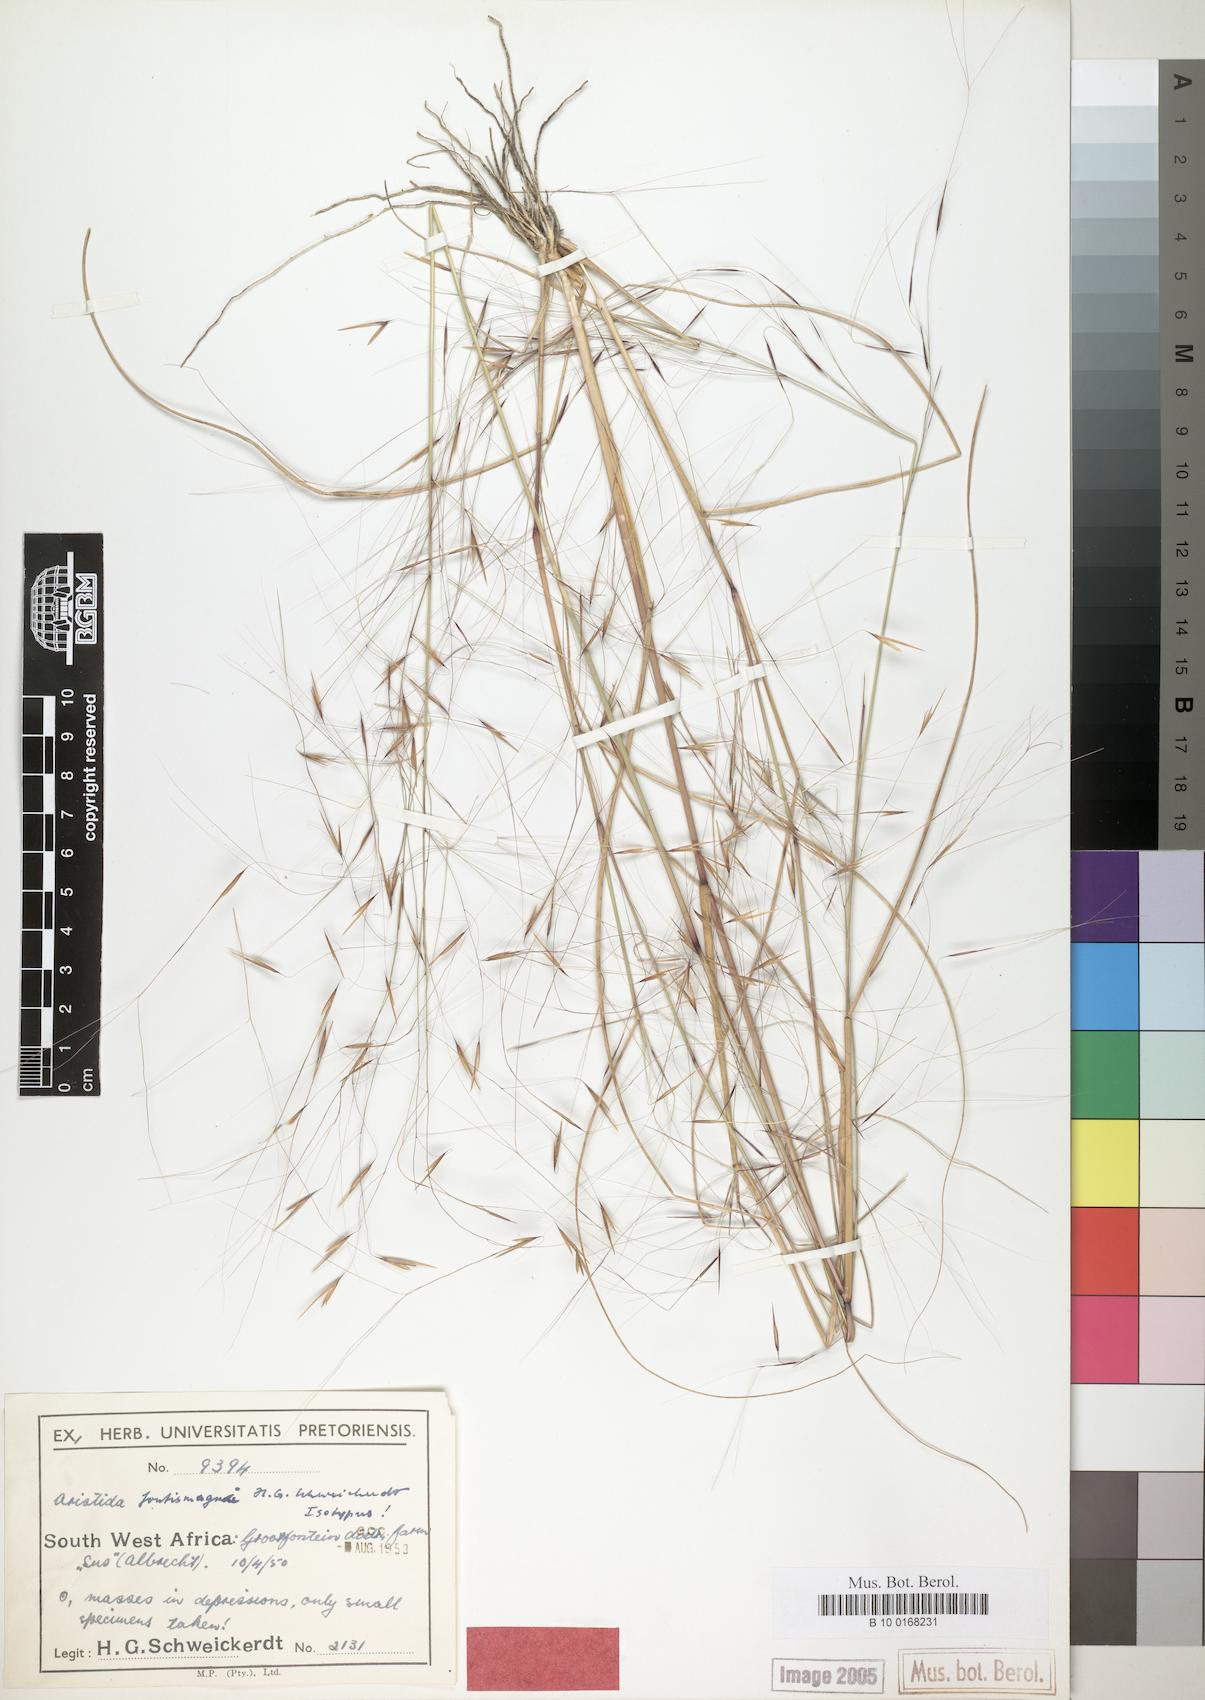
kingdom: Plantae
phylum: Tracheophyta
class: Liliopsida
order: Poales
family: Poaceae
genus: Aristida
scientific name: Aristida stipoides
